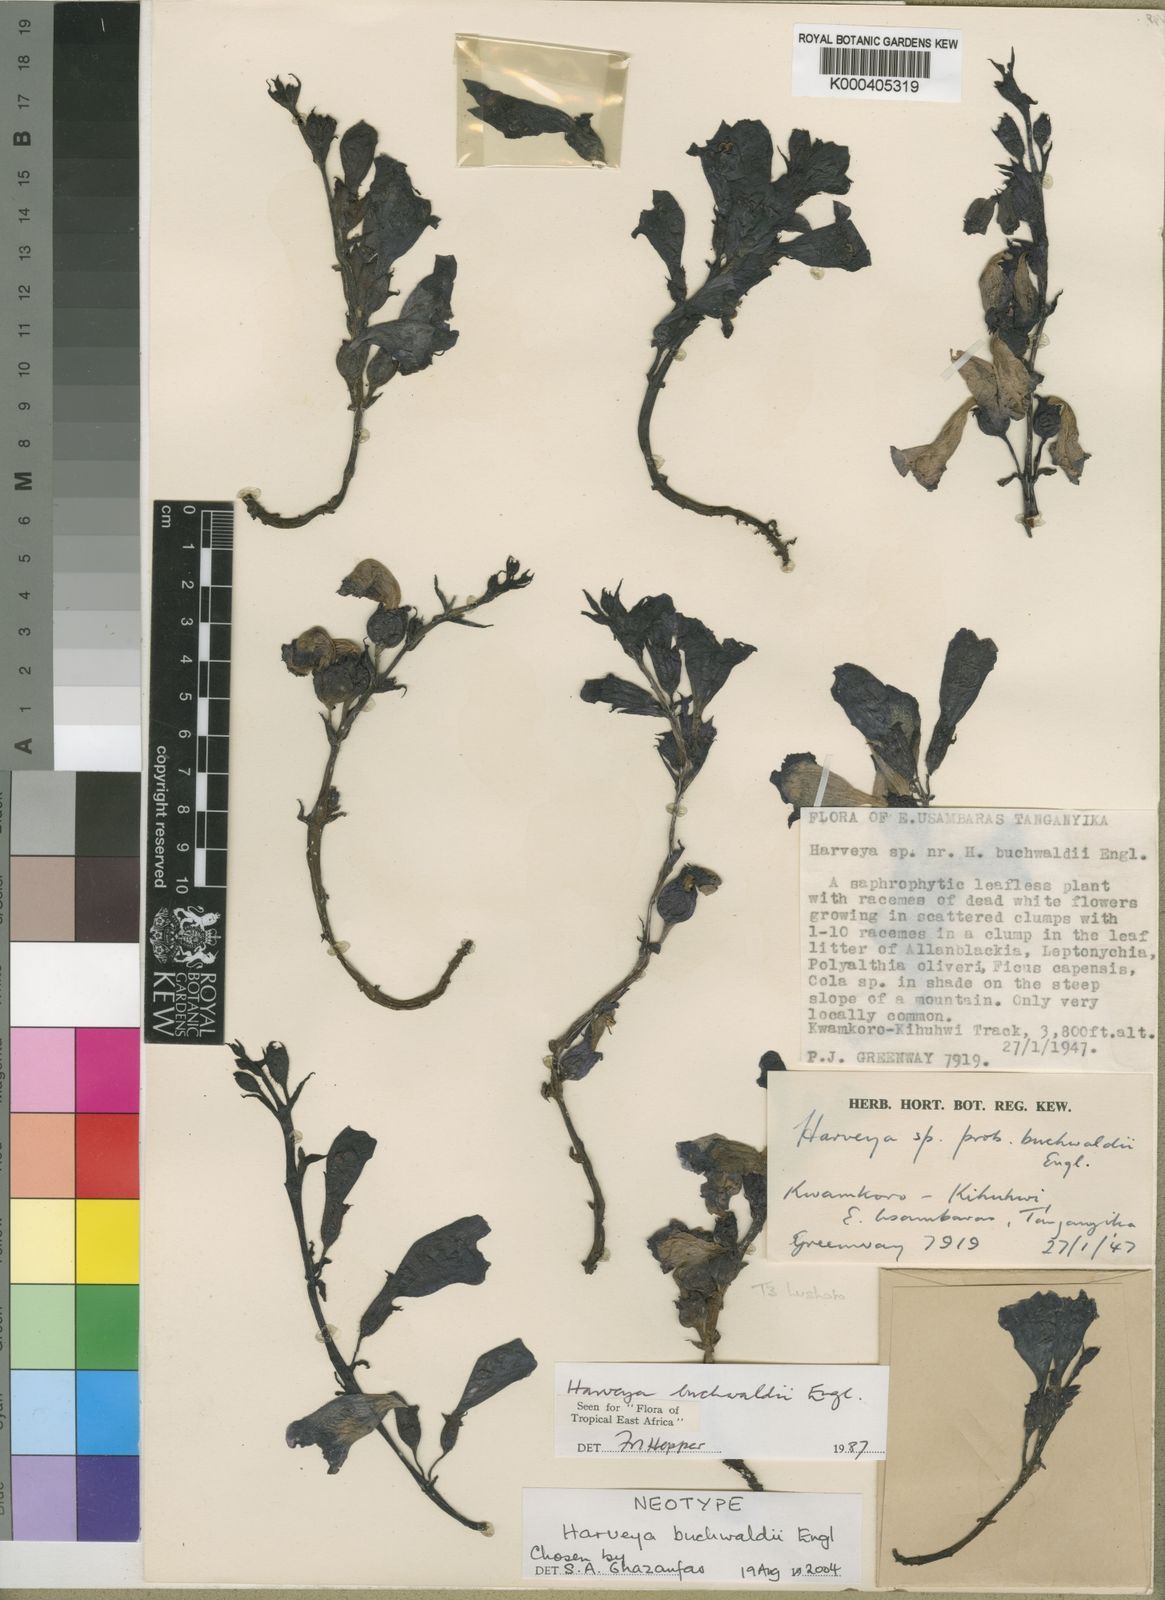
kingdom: Plantae
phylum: Tracheophyta
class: Magnoliopsida
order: Lamiales
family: Orobanchaceae
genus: Harveya
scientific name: Harveya buchwaldii
